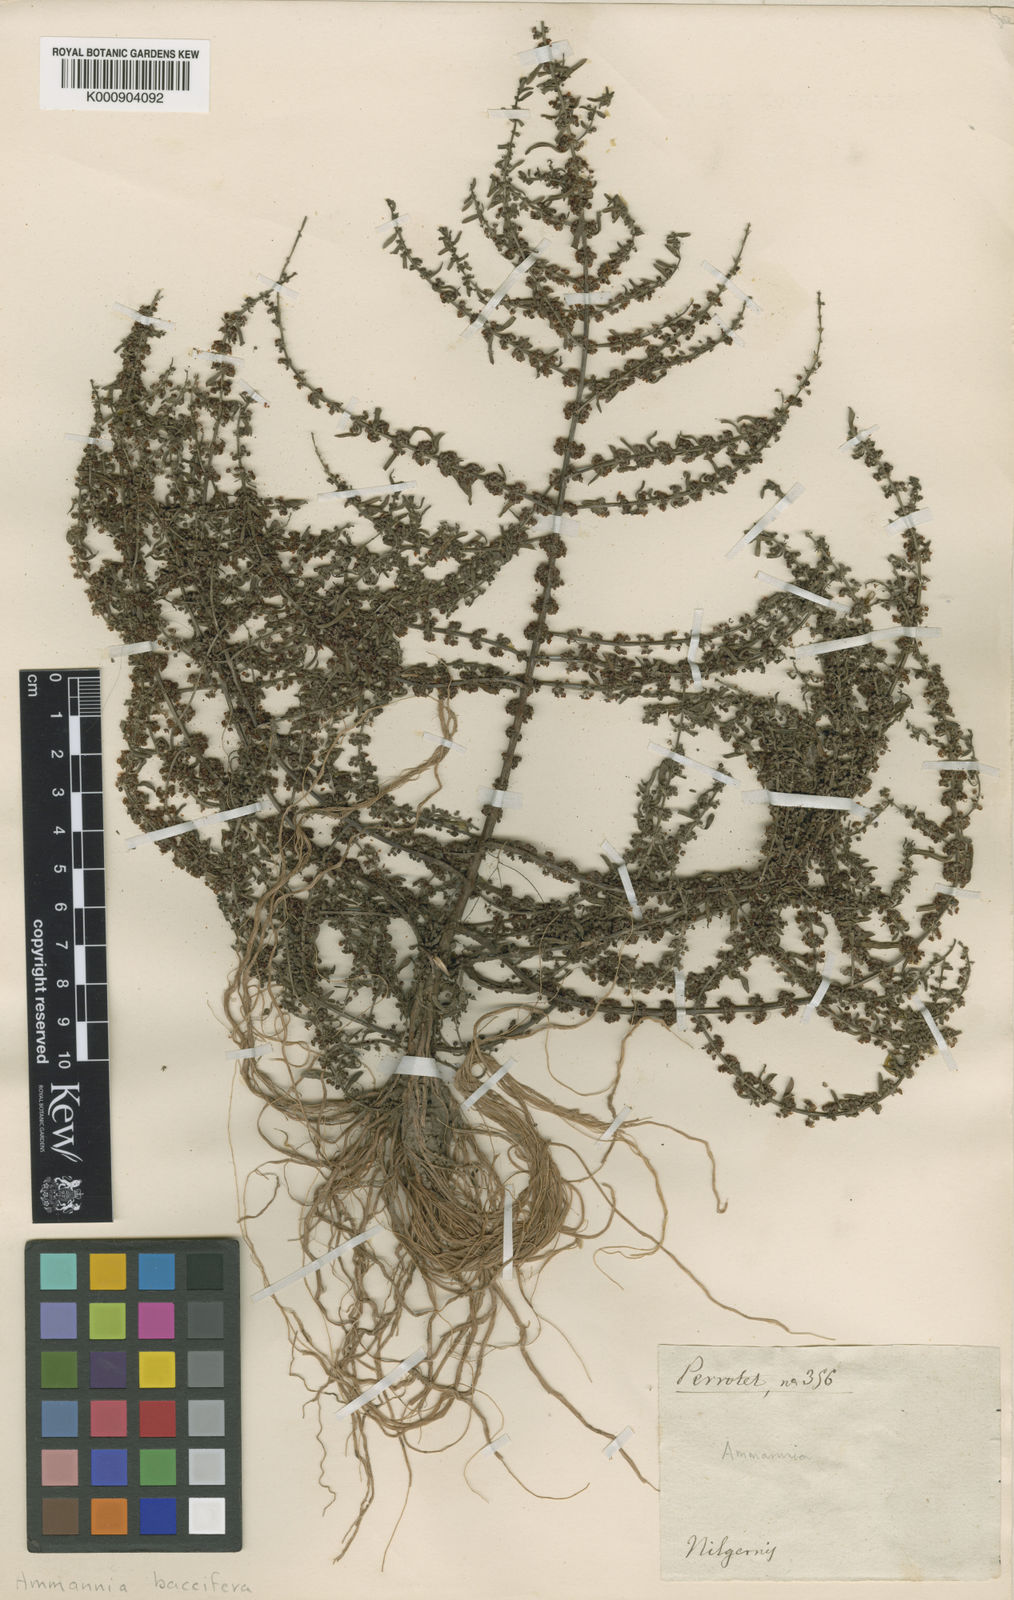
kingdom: Plantae
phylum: Tracheophyta
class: Magnoliopsida
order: Myrtales
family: Lythraceae
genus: Ammannia
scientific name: Ammannia baccifera
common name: Blistering ammania
